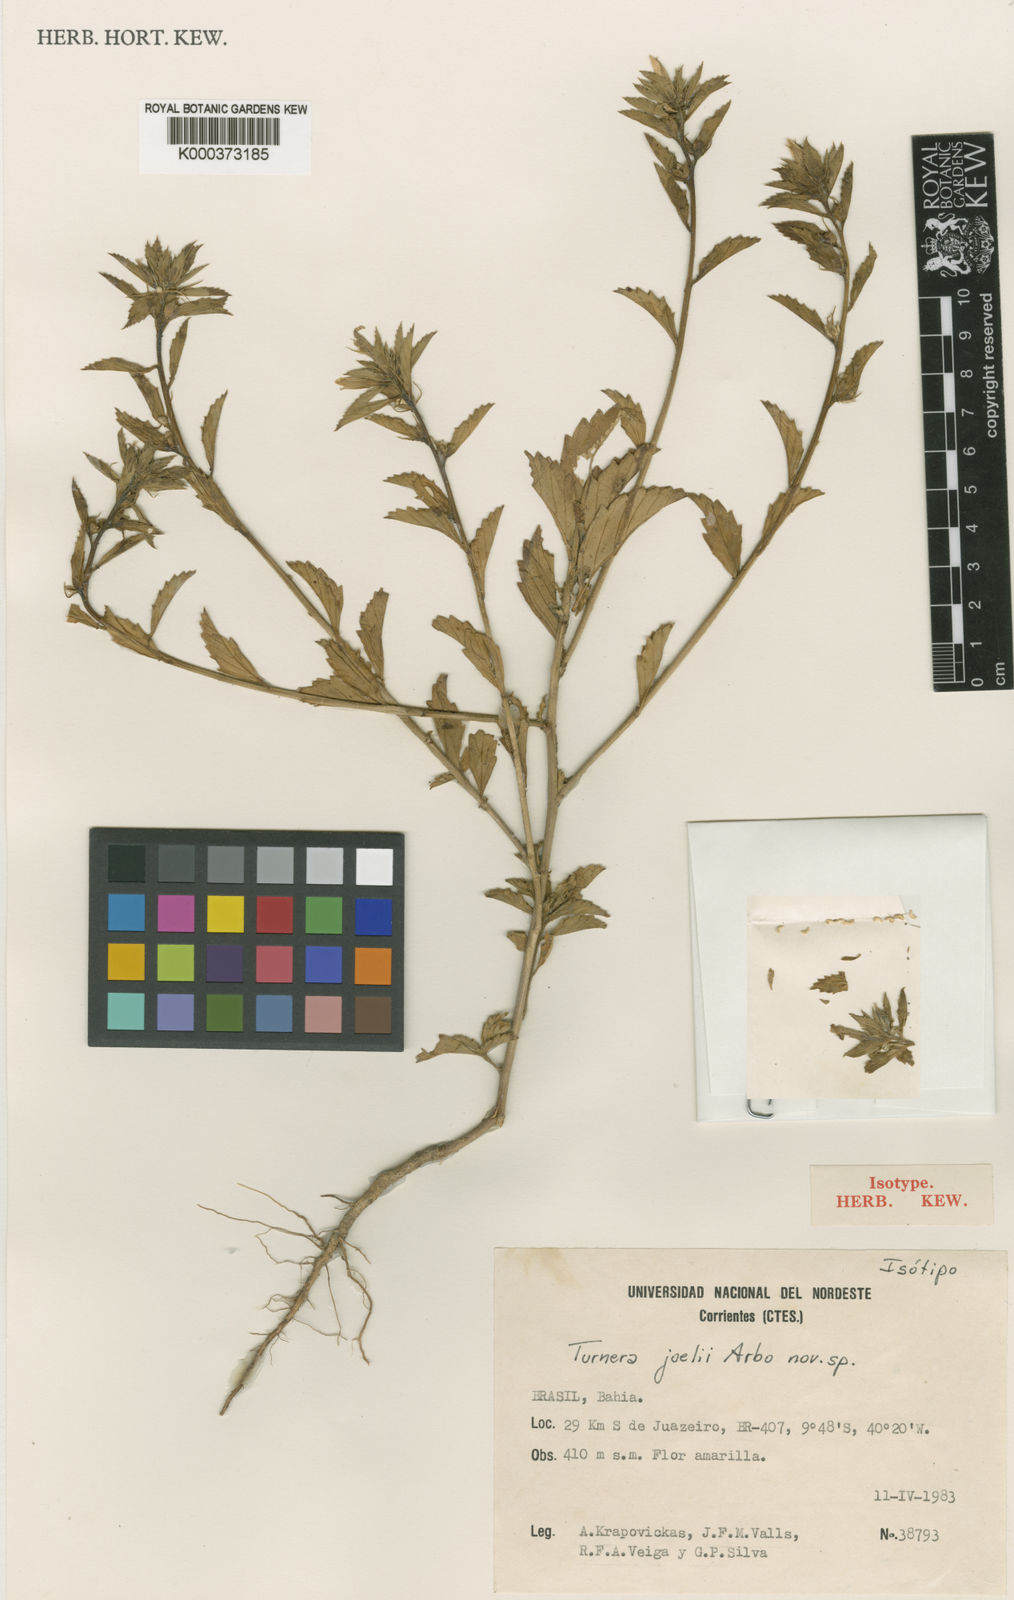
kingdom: Plantae
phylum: Tracheophyta
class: Magnoliopsida
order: Malpighiales
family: Turneraceae
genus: Turnera
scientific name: Turnera joelii
